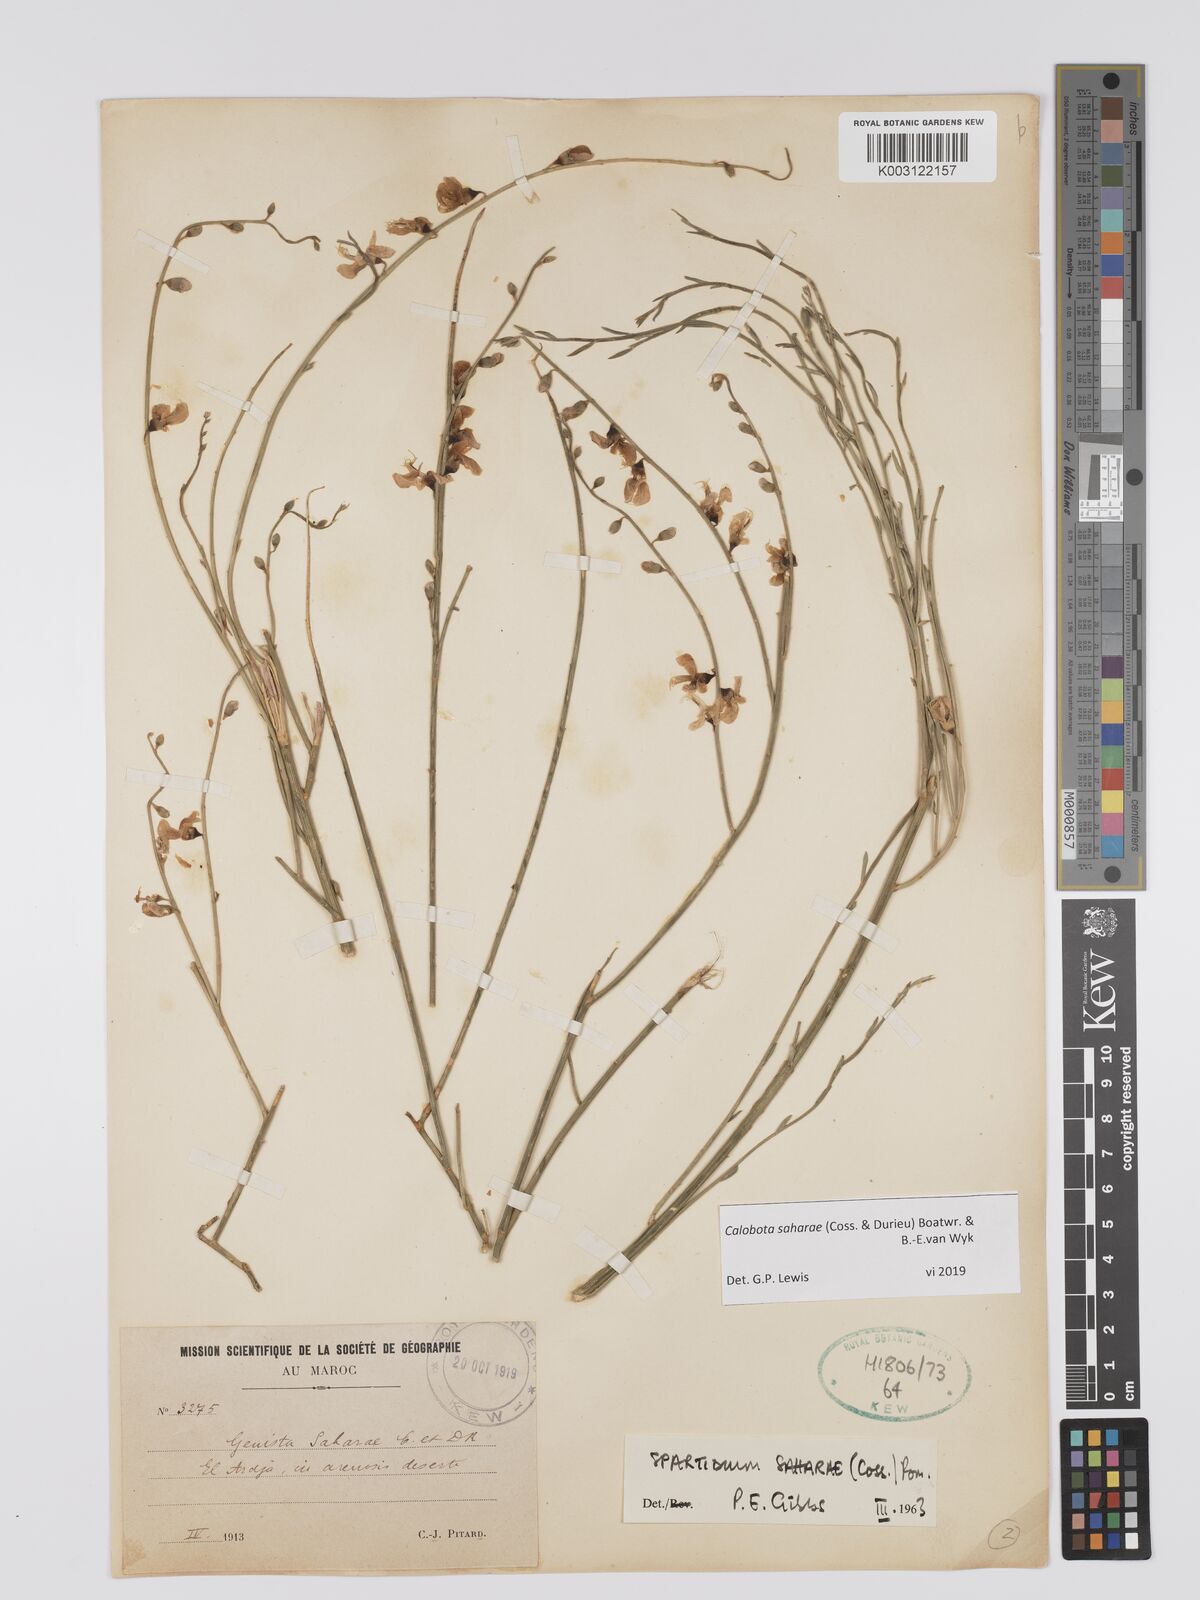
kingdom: Plantae
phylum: Tracheophyta
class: Magnoliopsida
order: Fabales
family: Fabaceae
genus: Calobota
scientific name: Calobota saharae
